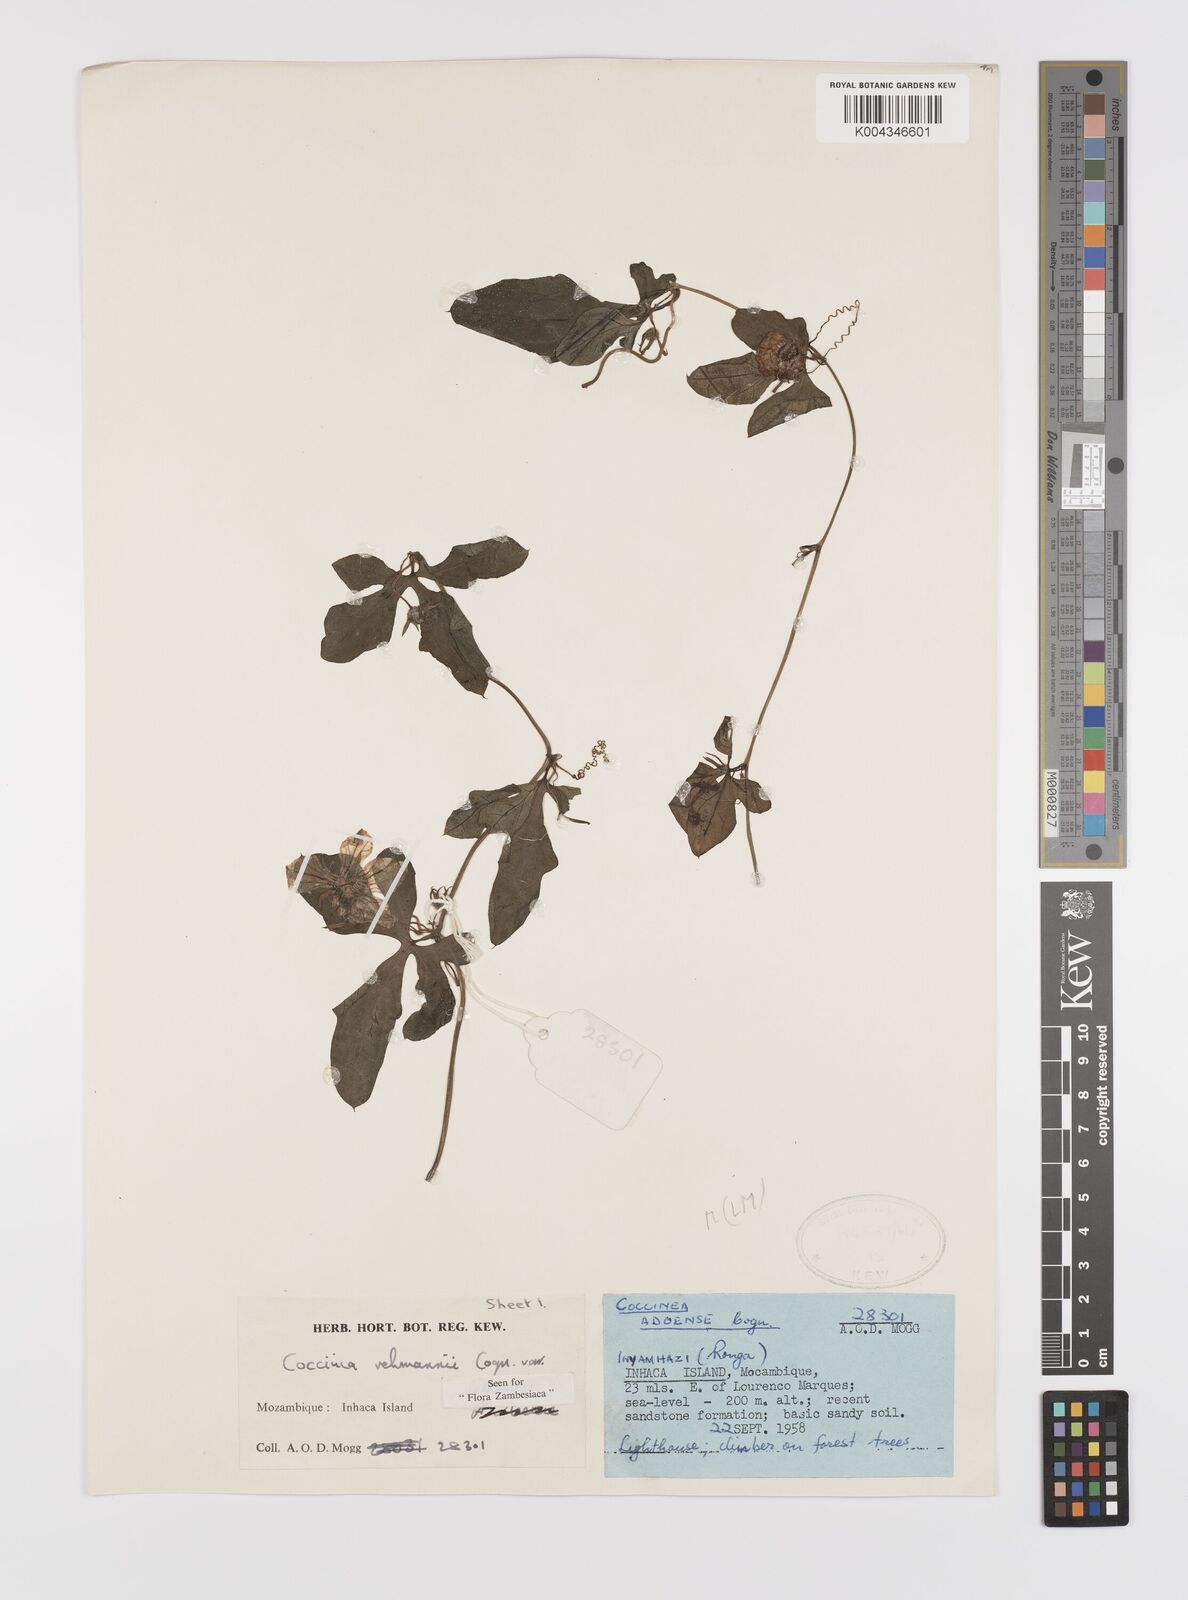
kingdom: Plantae
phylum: Tracheophyta
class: Magnoliopsida
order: Cucurbitales
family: Cucurbitaceae
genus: Coccinia
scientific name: Coccinia rehmannii
